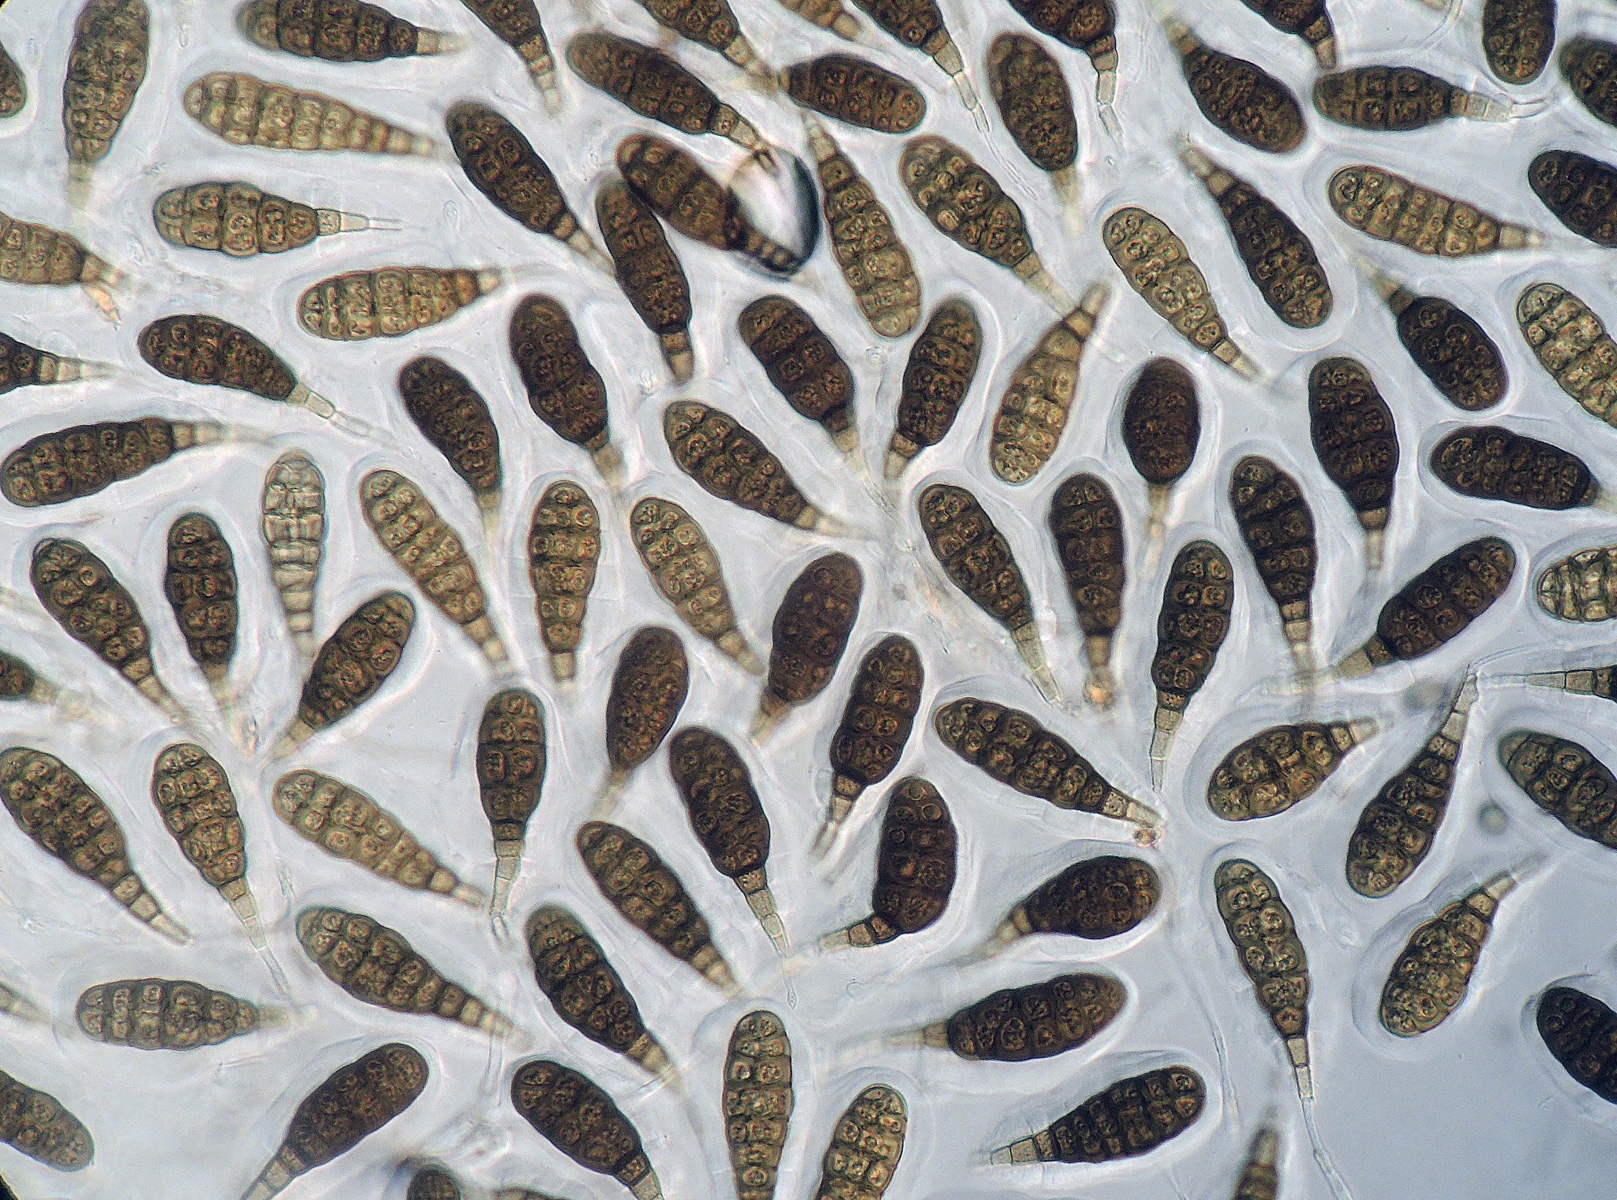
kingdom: Fungi
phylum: Ascomycota
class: Dothideomycetes
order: Pleosporales
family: Pleomassariaceae
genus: Splanchnonema
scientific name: Splanchnonema argus
